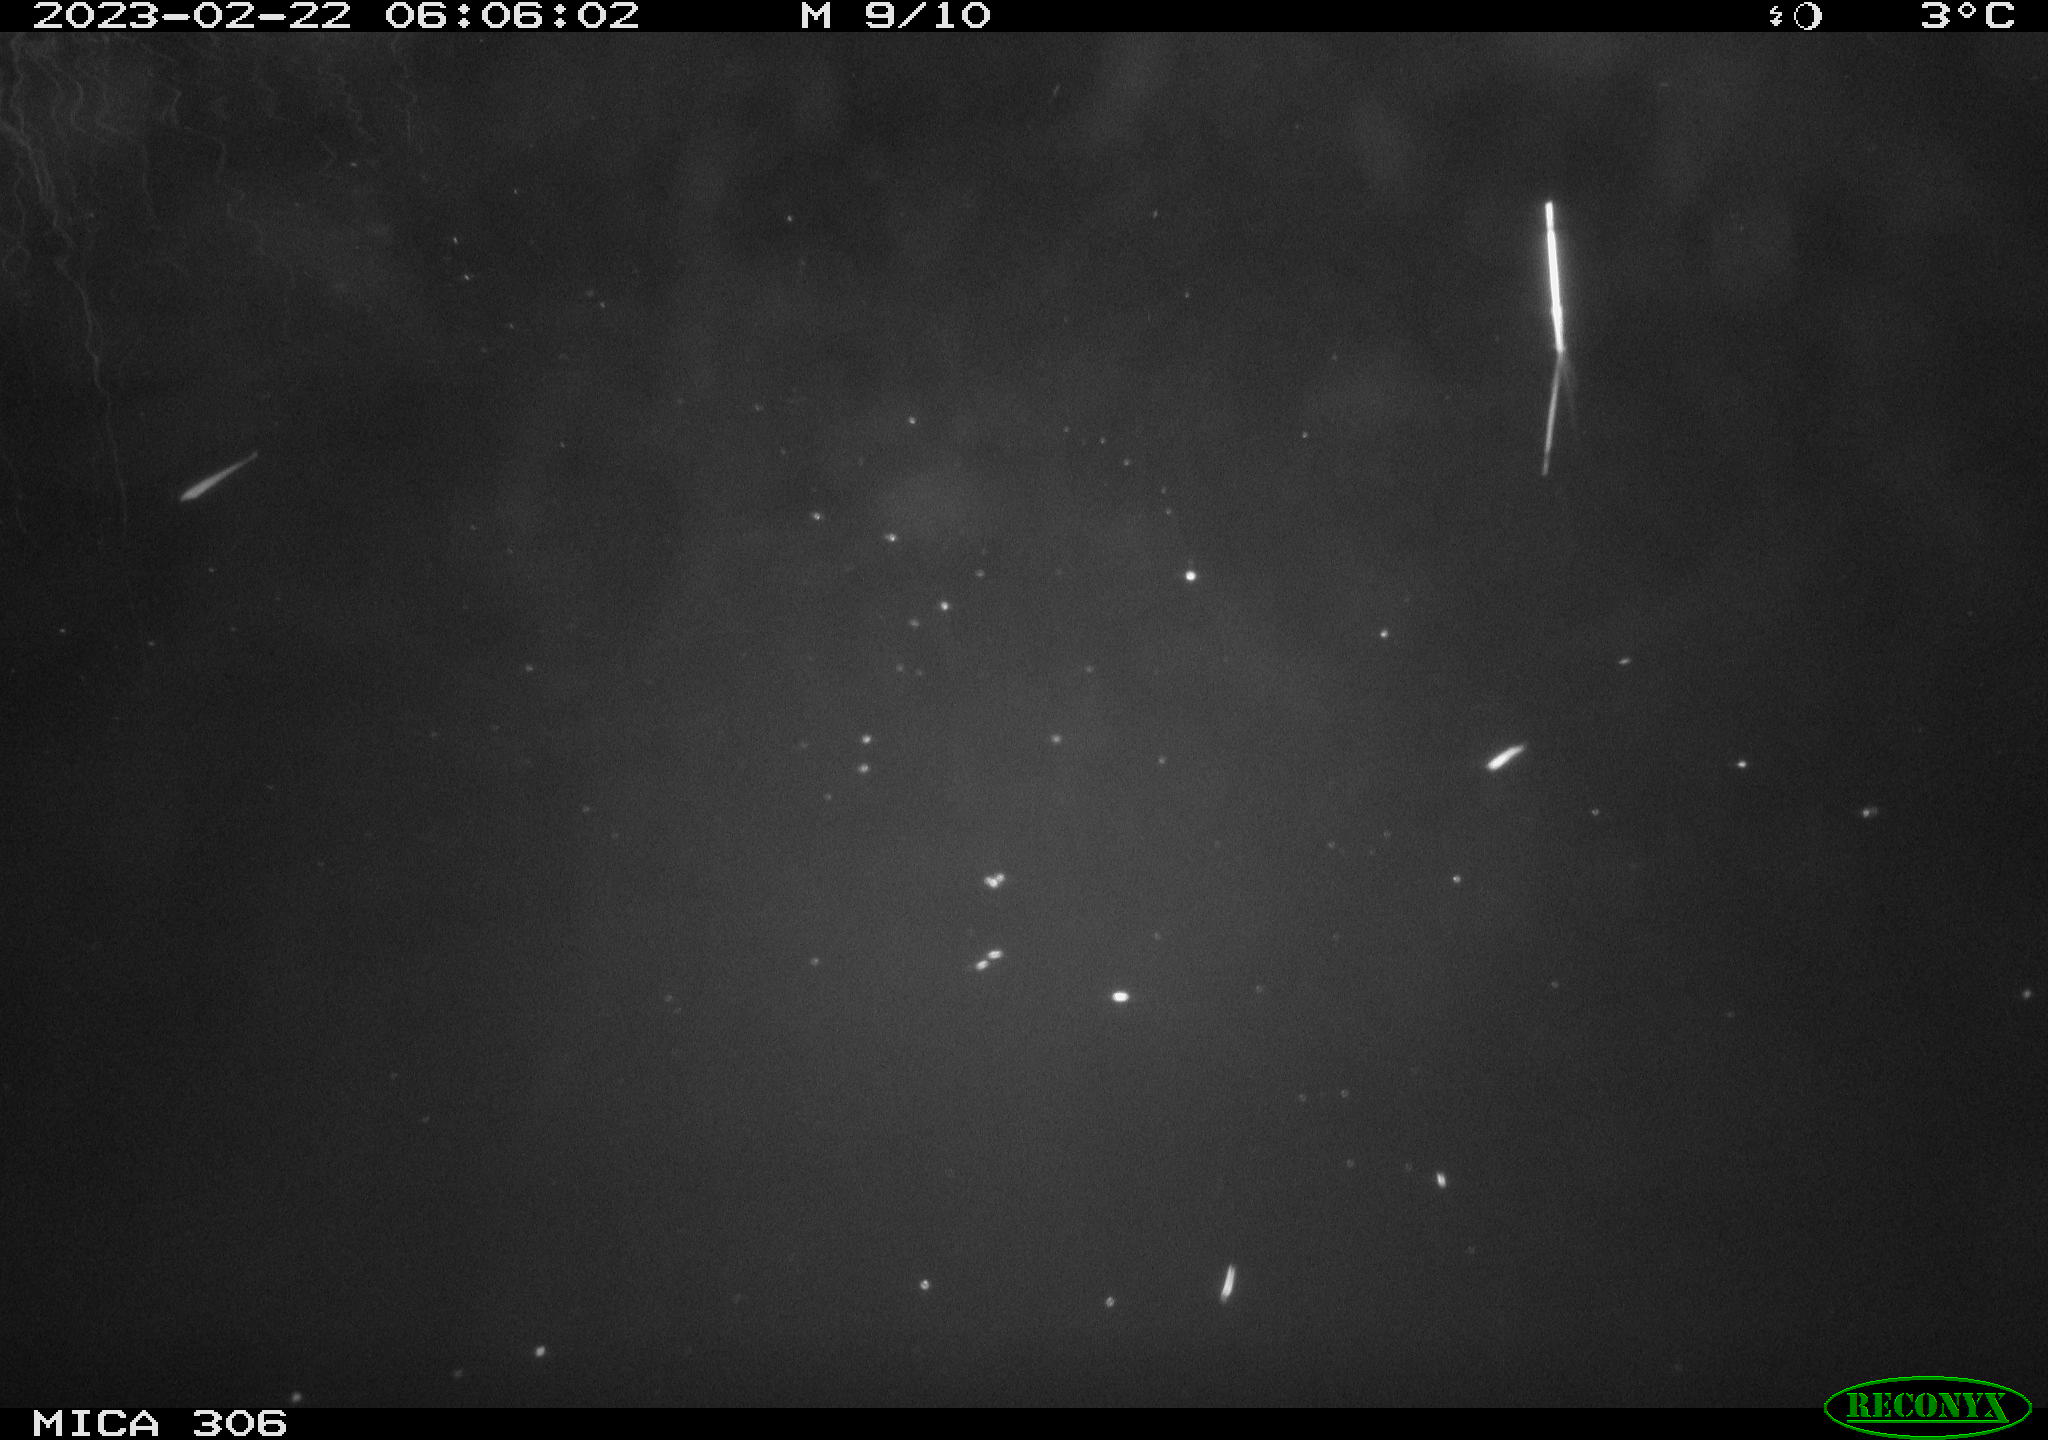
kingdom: Animalia
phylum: Chordata
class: Mammalia
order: Rodentia
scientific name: Rodentia
